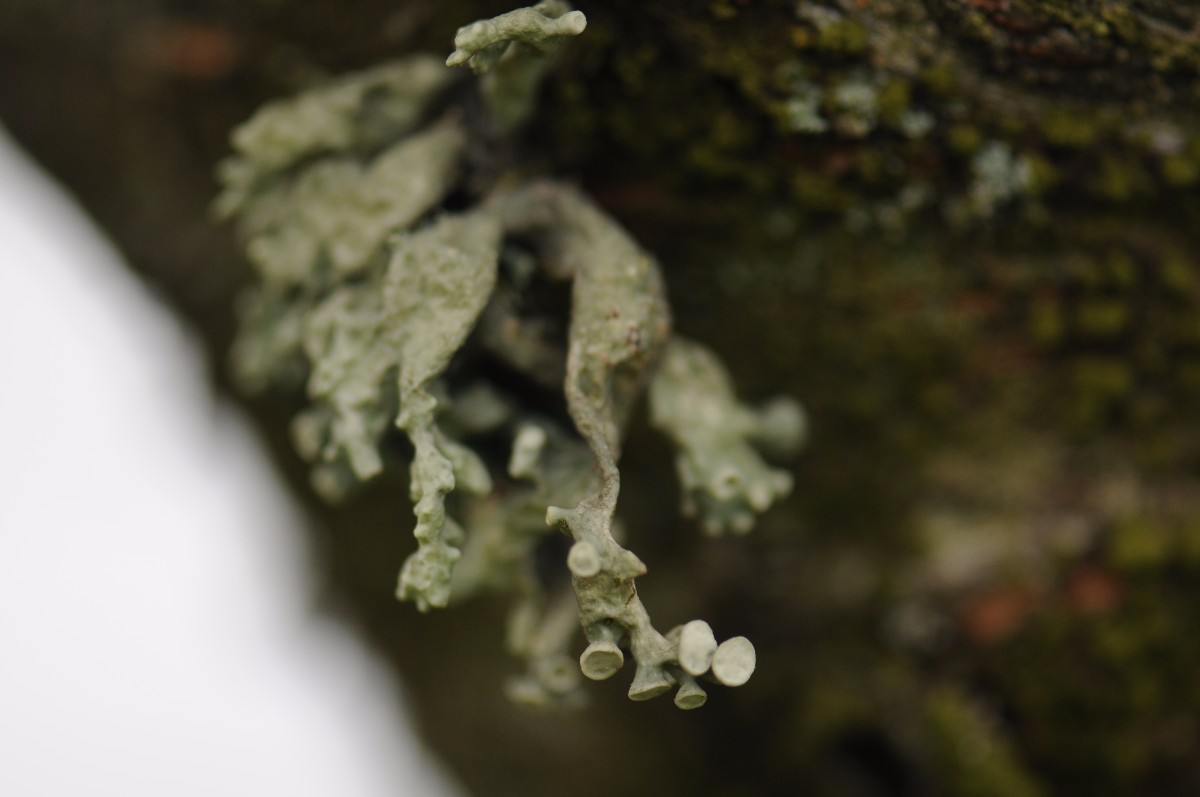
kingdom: Fungi
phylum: Ascomycota
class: Lecanoromycetes
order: Lecanorales
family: Ramalinaceae
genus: Ramalina
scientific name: Ramalina fastigiata
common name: tue-grenlav
